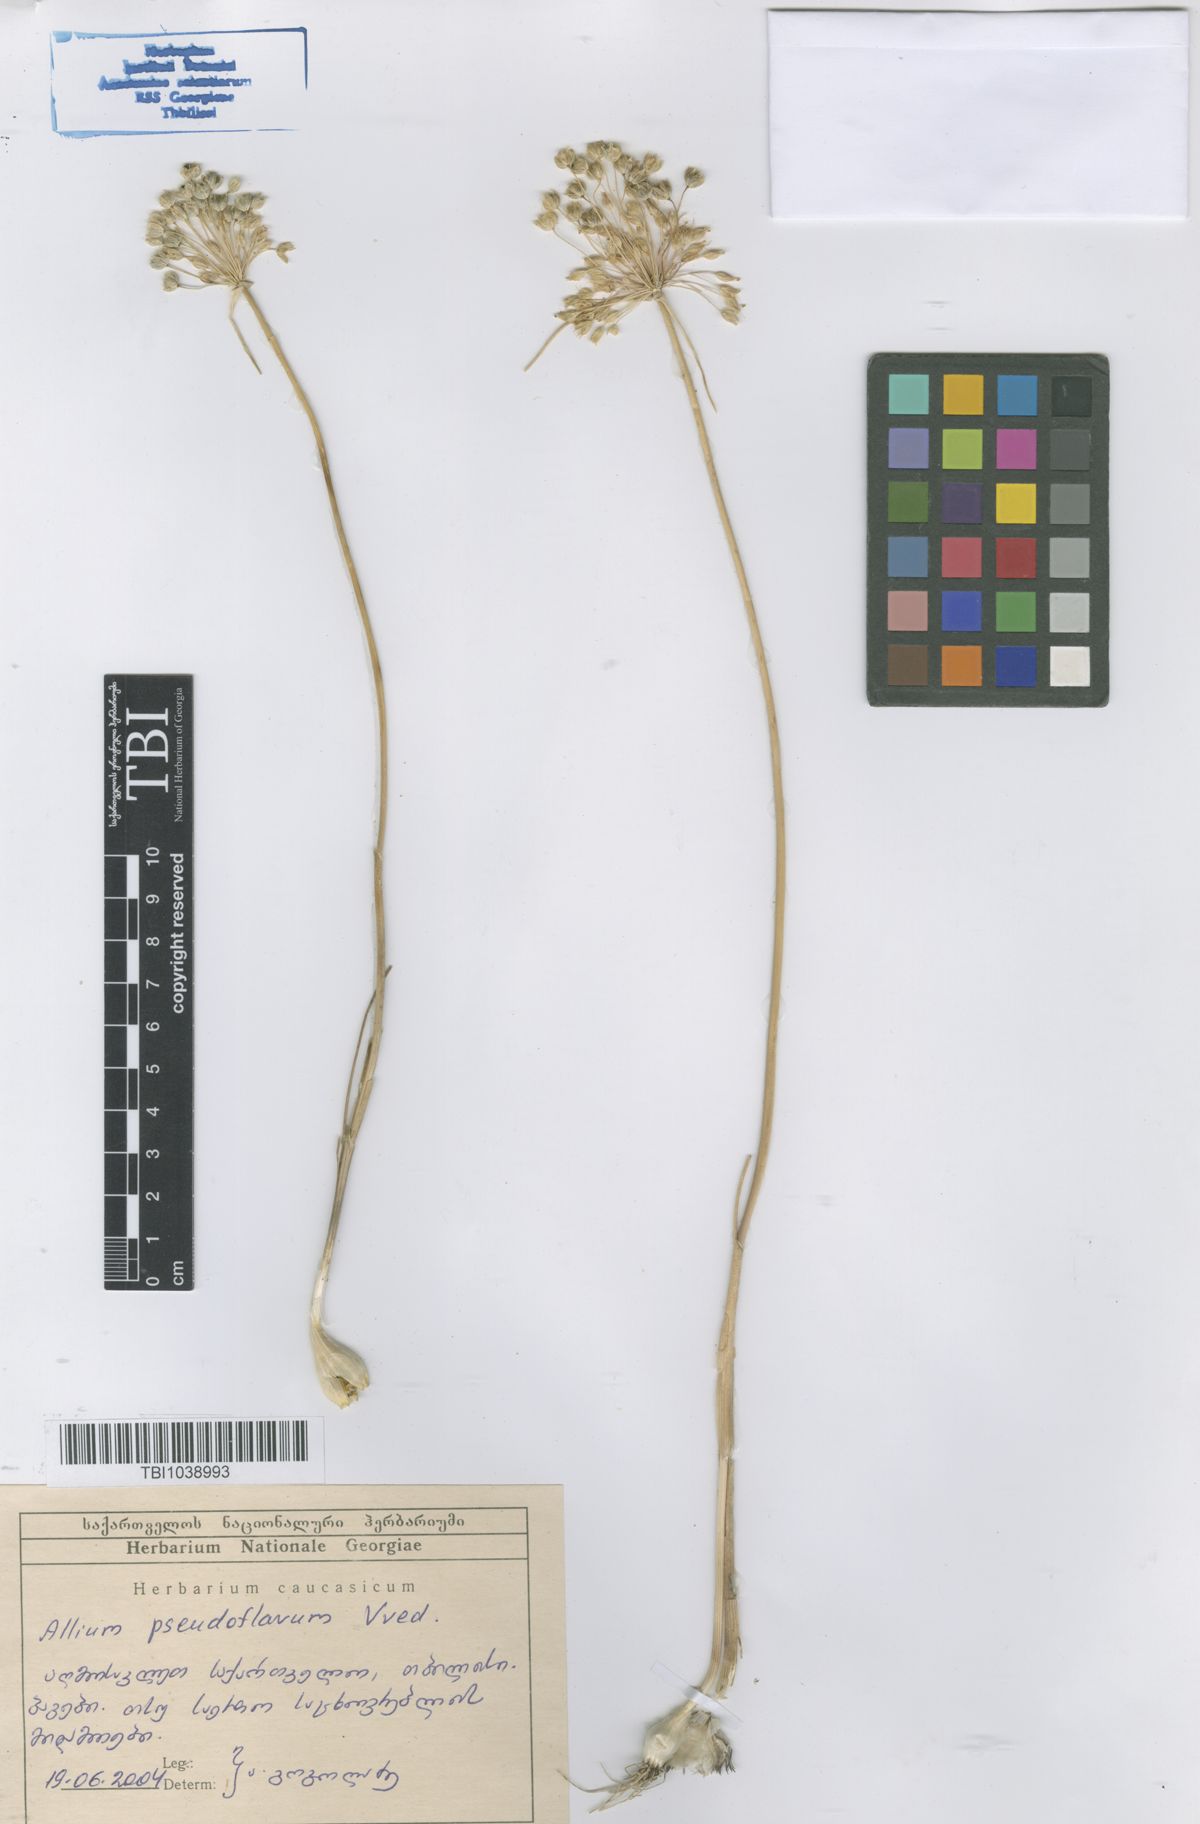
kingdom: Plantae
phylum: Tracheophyta
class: Liliopsida
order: Asparagales
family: Amaryllidaceae
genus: Allium
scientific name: Allium pseudoflavum
